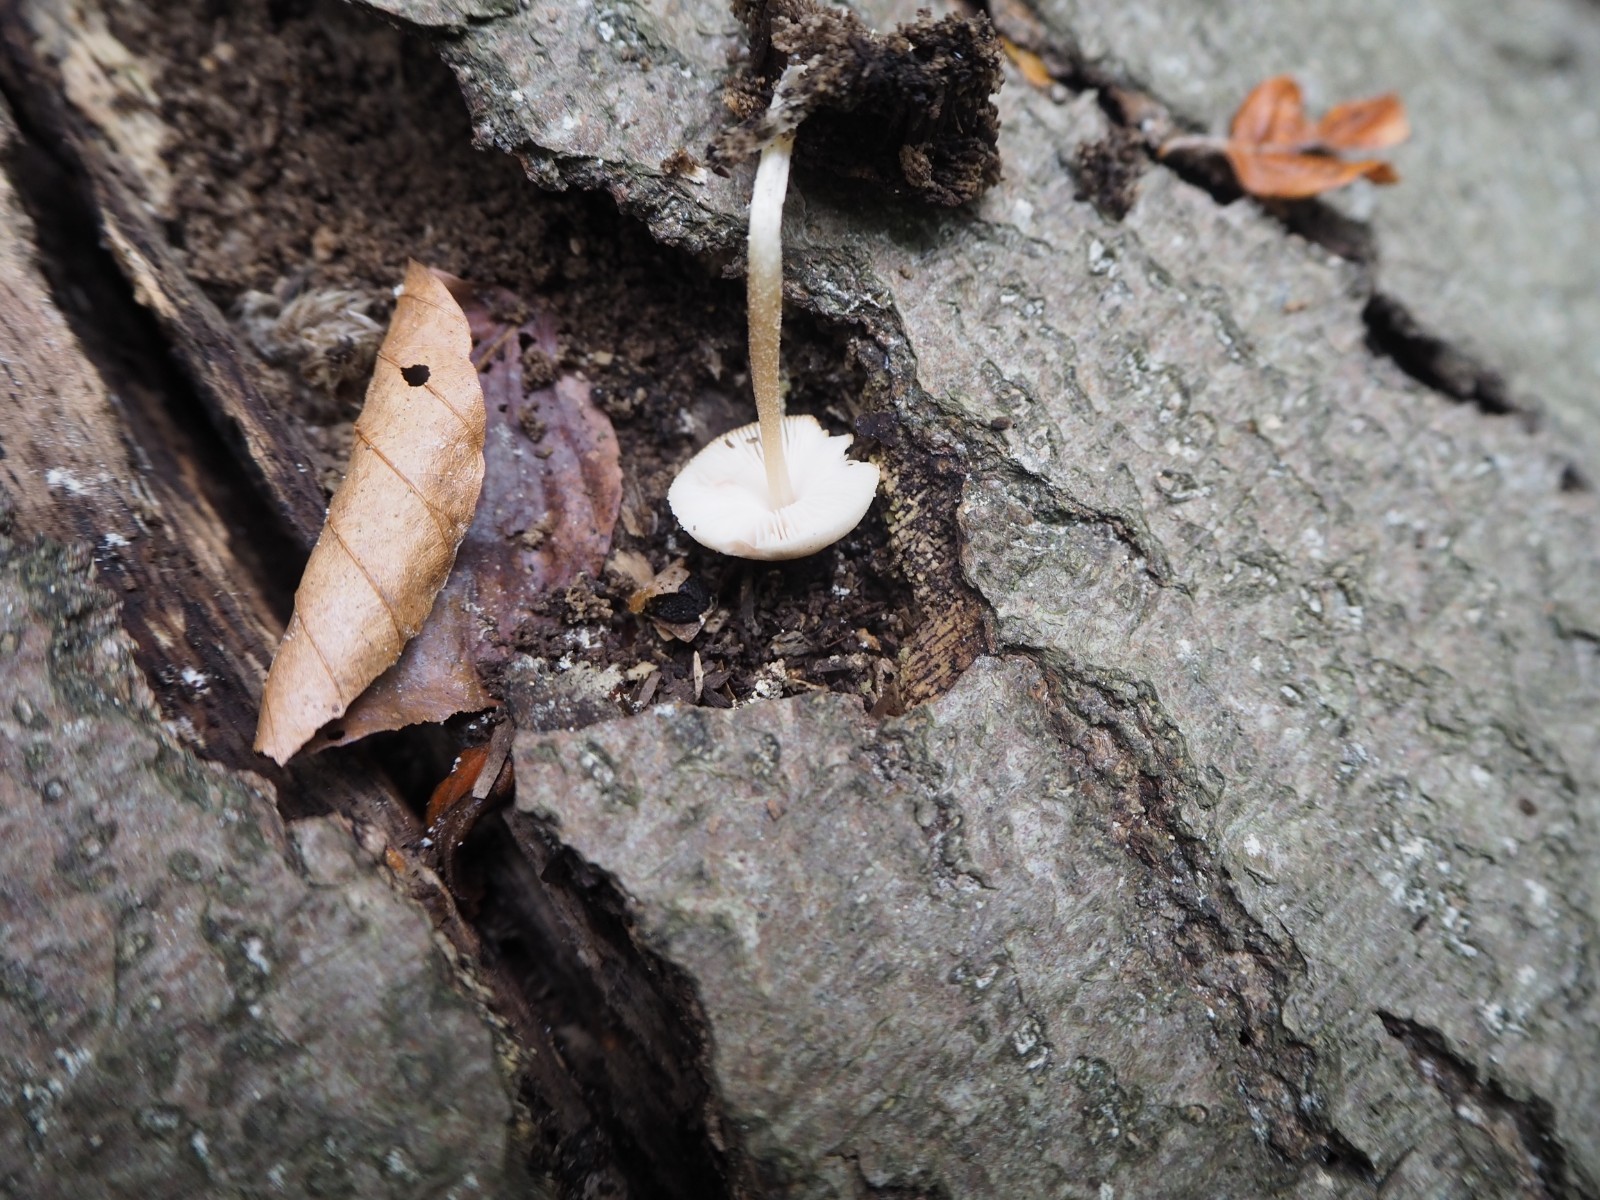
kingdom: Fungi
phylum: Basidiomycota
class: Agaricomycetes
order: Agaricales
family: Pluteaceae
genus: Pluteus
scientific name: Pluteus semibulbosus
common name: knoldet skærmhat
